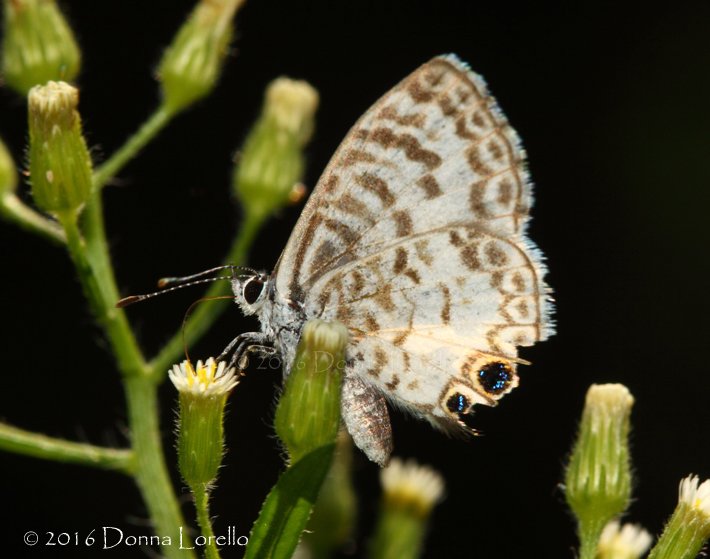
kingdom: Animalia
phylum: Arthropoda
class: Insecta
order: Lepidoptera
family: Lycaenidae
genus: Leptotes
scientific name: Leptotes cassius
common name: Cassius Blue
